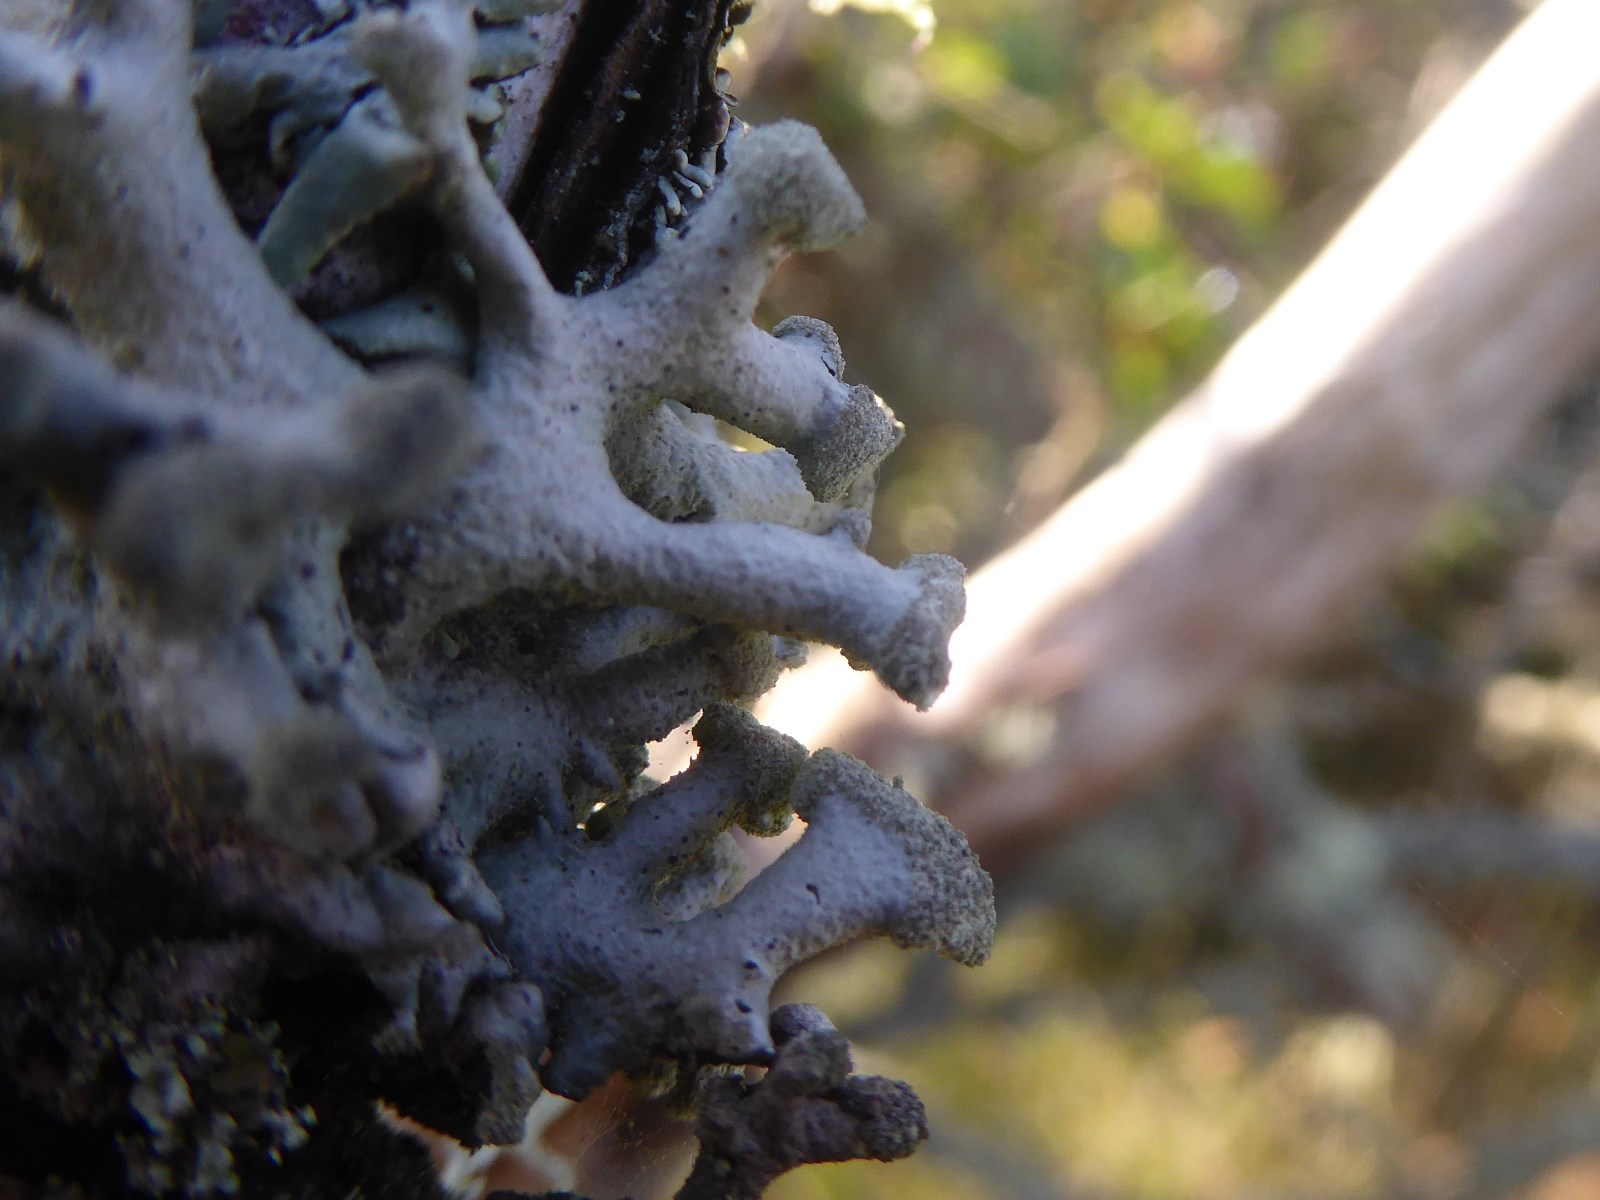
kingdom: Fungi
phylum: Ascomycota
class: Lecanoromycetes
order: Lecanorales
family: Parmeliaceae
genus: Hypogymnia
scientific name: Hypogymnia tubulosa
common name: finger-kvistlav
